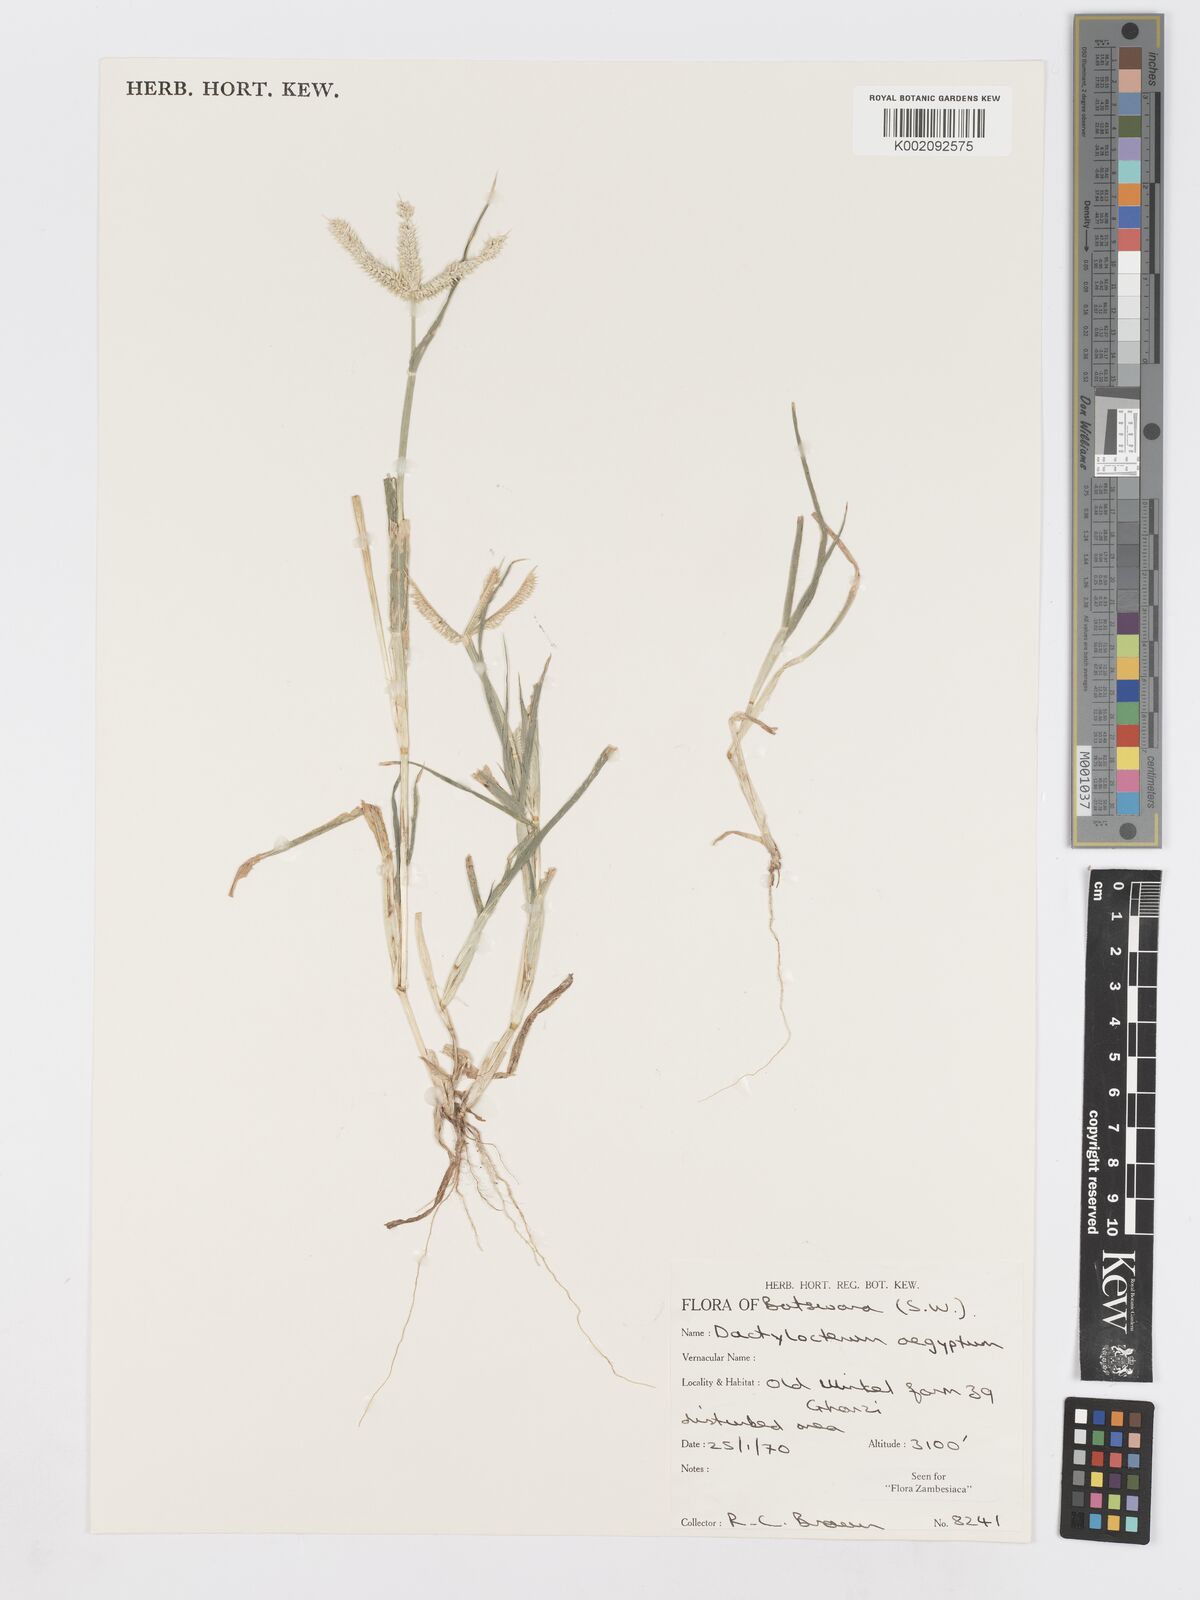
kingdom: Plantae
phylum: Tracheophyta
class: Liliopsida
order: Poales
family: Poaceae
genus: Dactyloctenium
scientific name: Dactyloctenium aegyptium
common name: Egyptian grass
